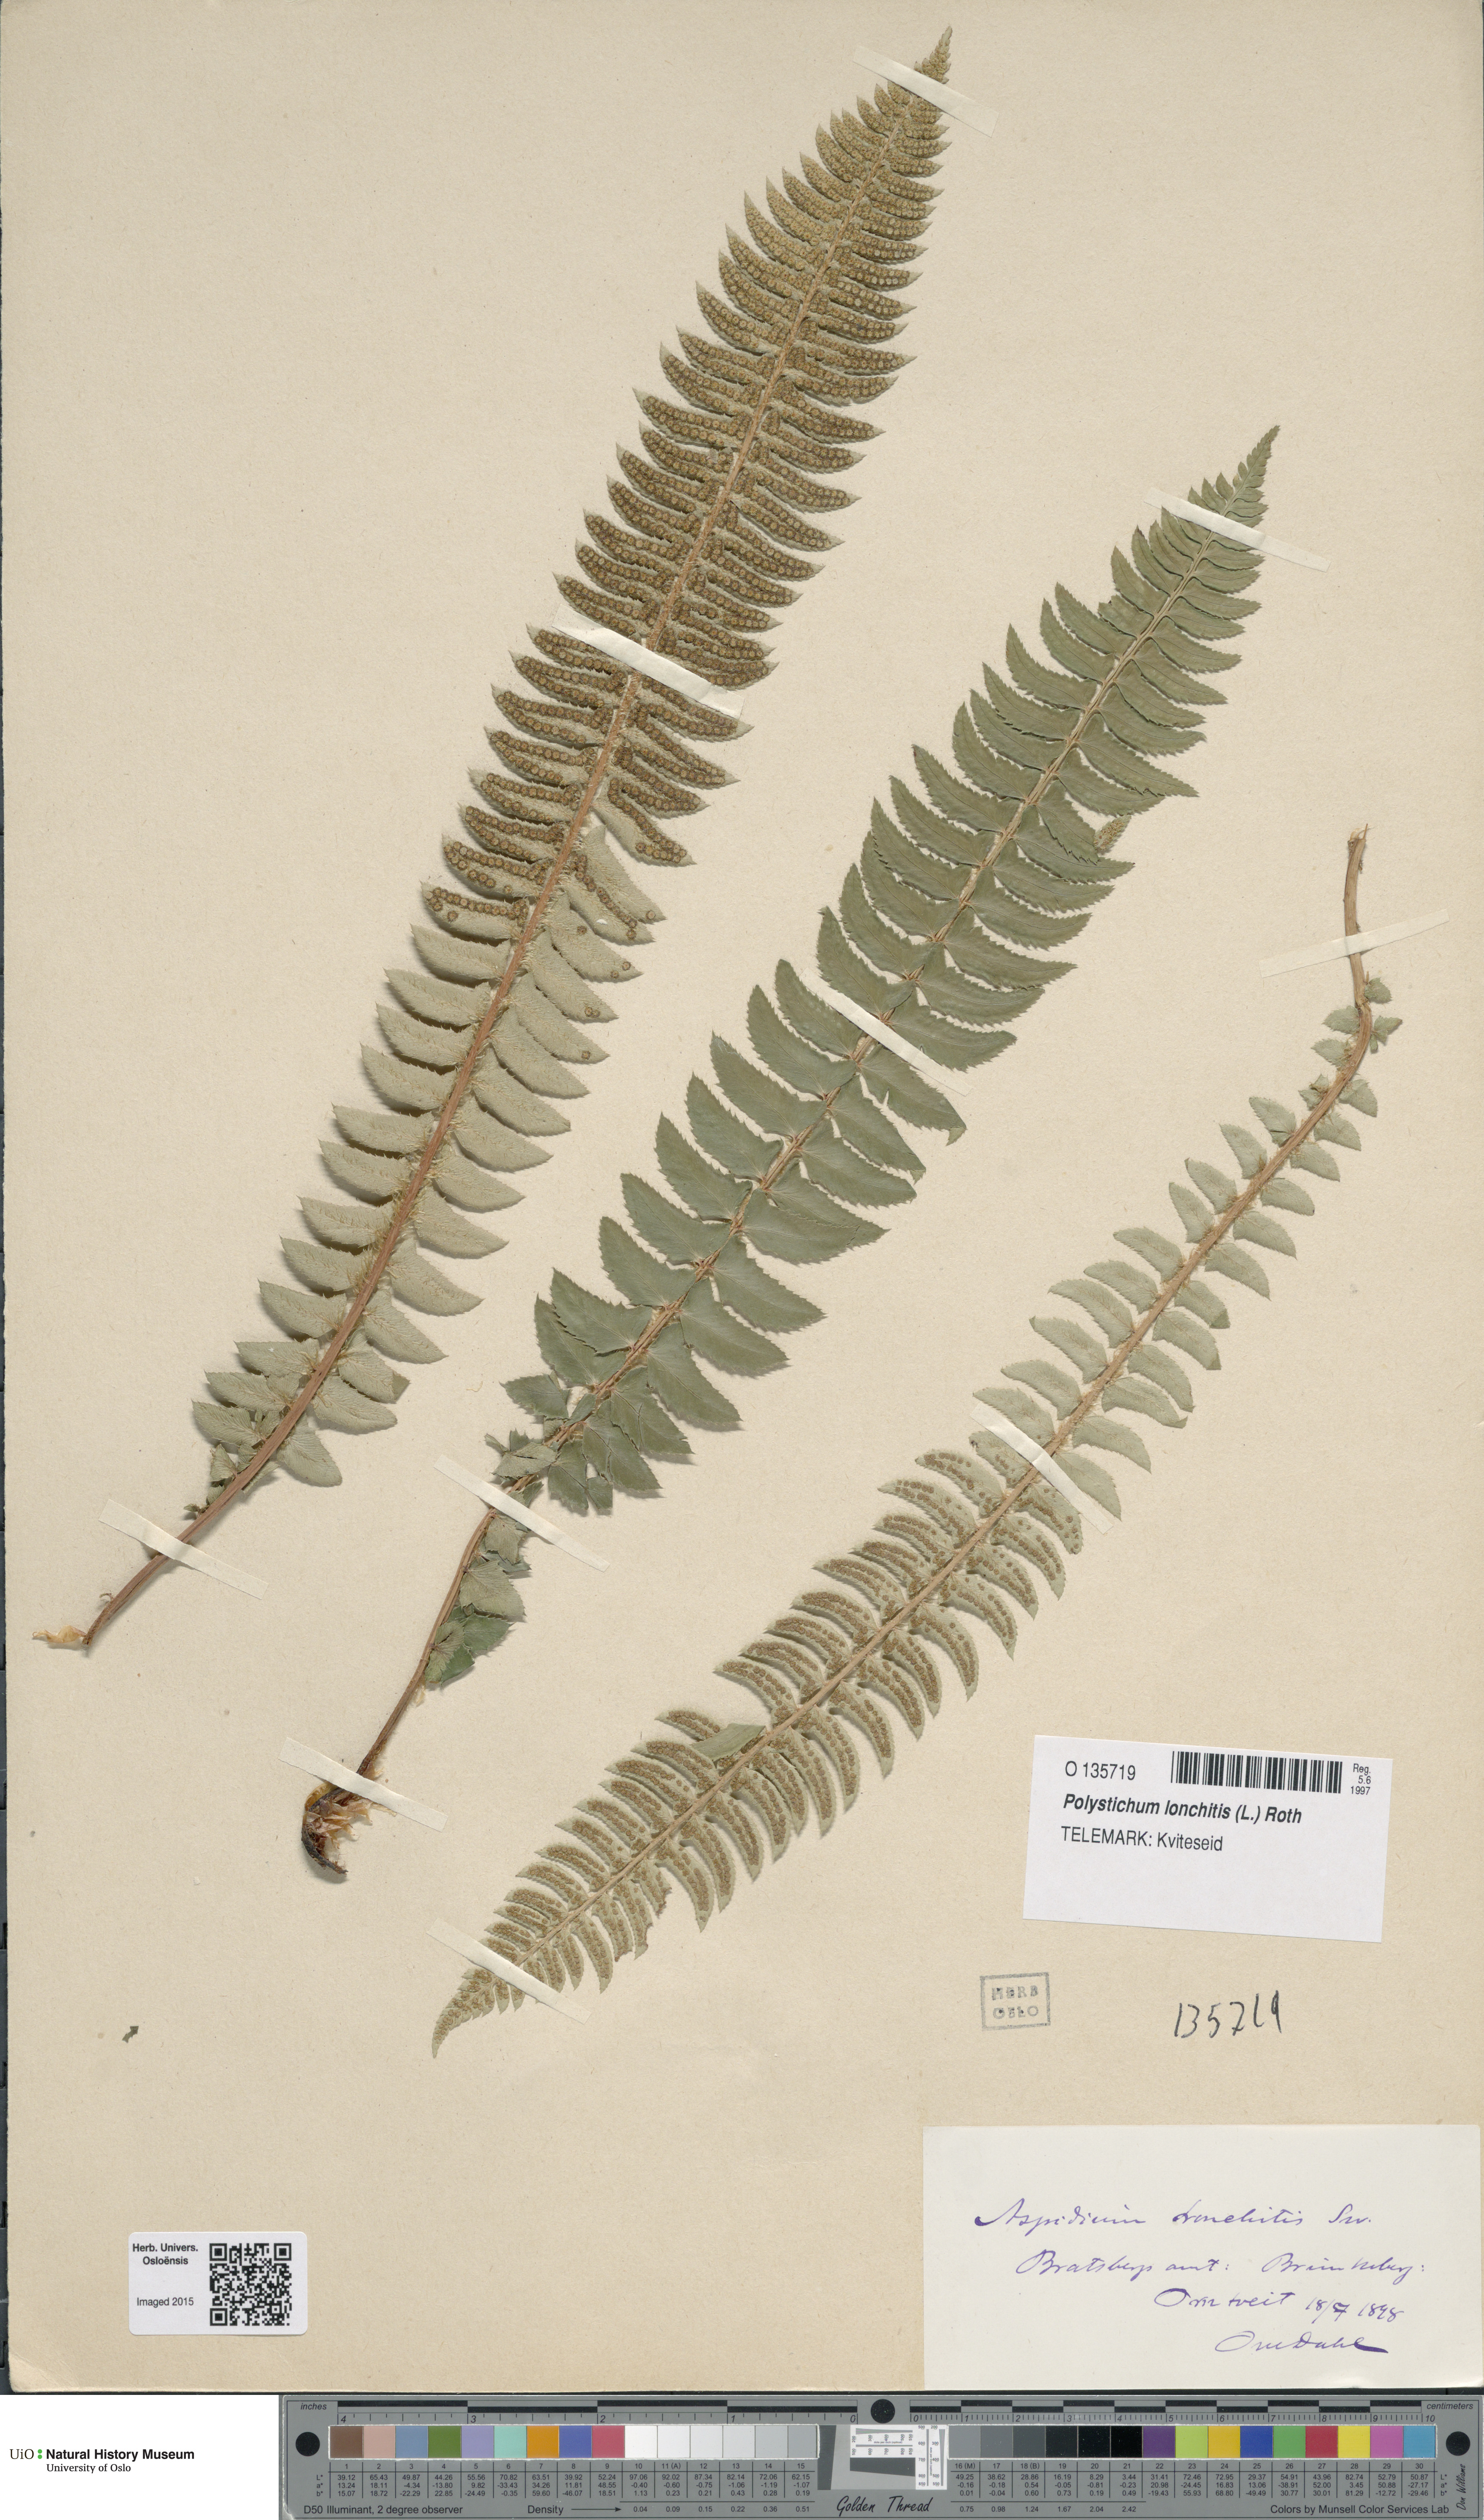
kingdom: Plantae
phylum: Tracheophyta
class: Polypodiopsida
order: Polypodiales
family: Dryopteridaceae
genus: Polystichum
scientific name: Polystichum lonchitis
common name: Holly fern
